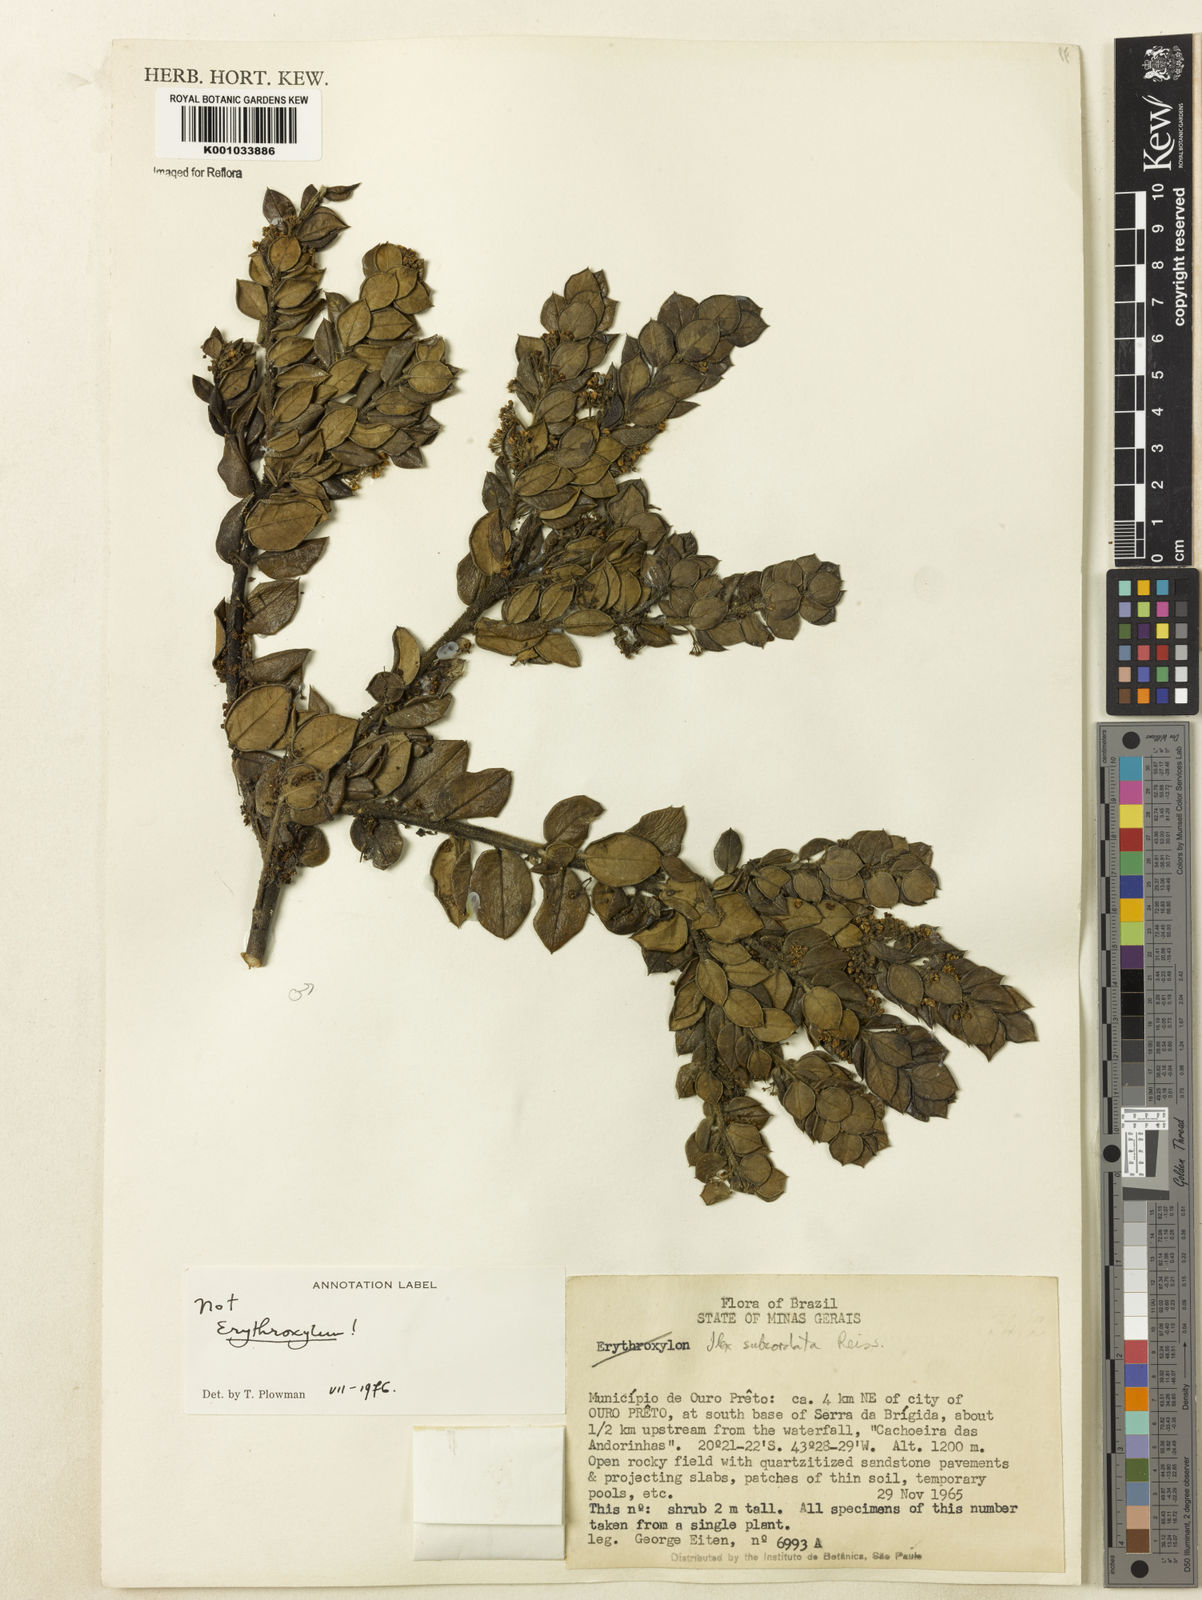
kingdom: Plantae
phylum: Tracheophyta
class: Magnoliopsida
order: Aquifoliales
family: Aquifoliaceae
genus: Ilex
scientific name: Ilex subcordata
